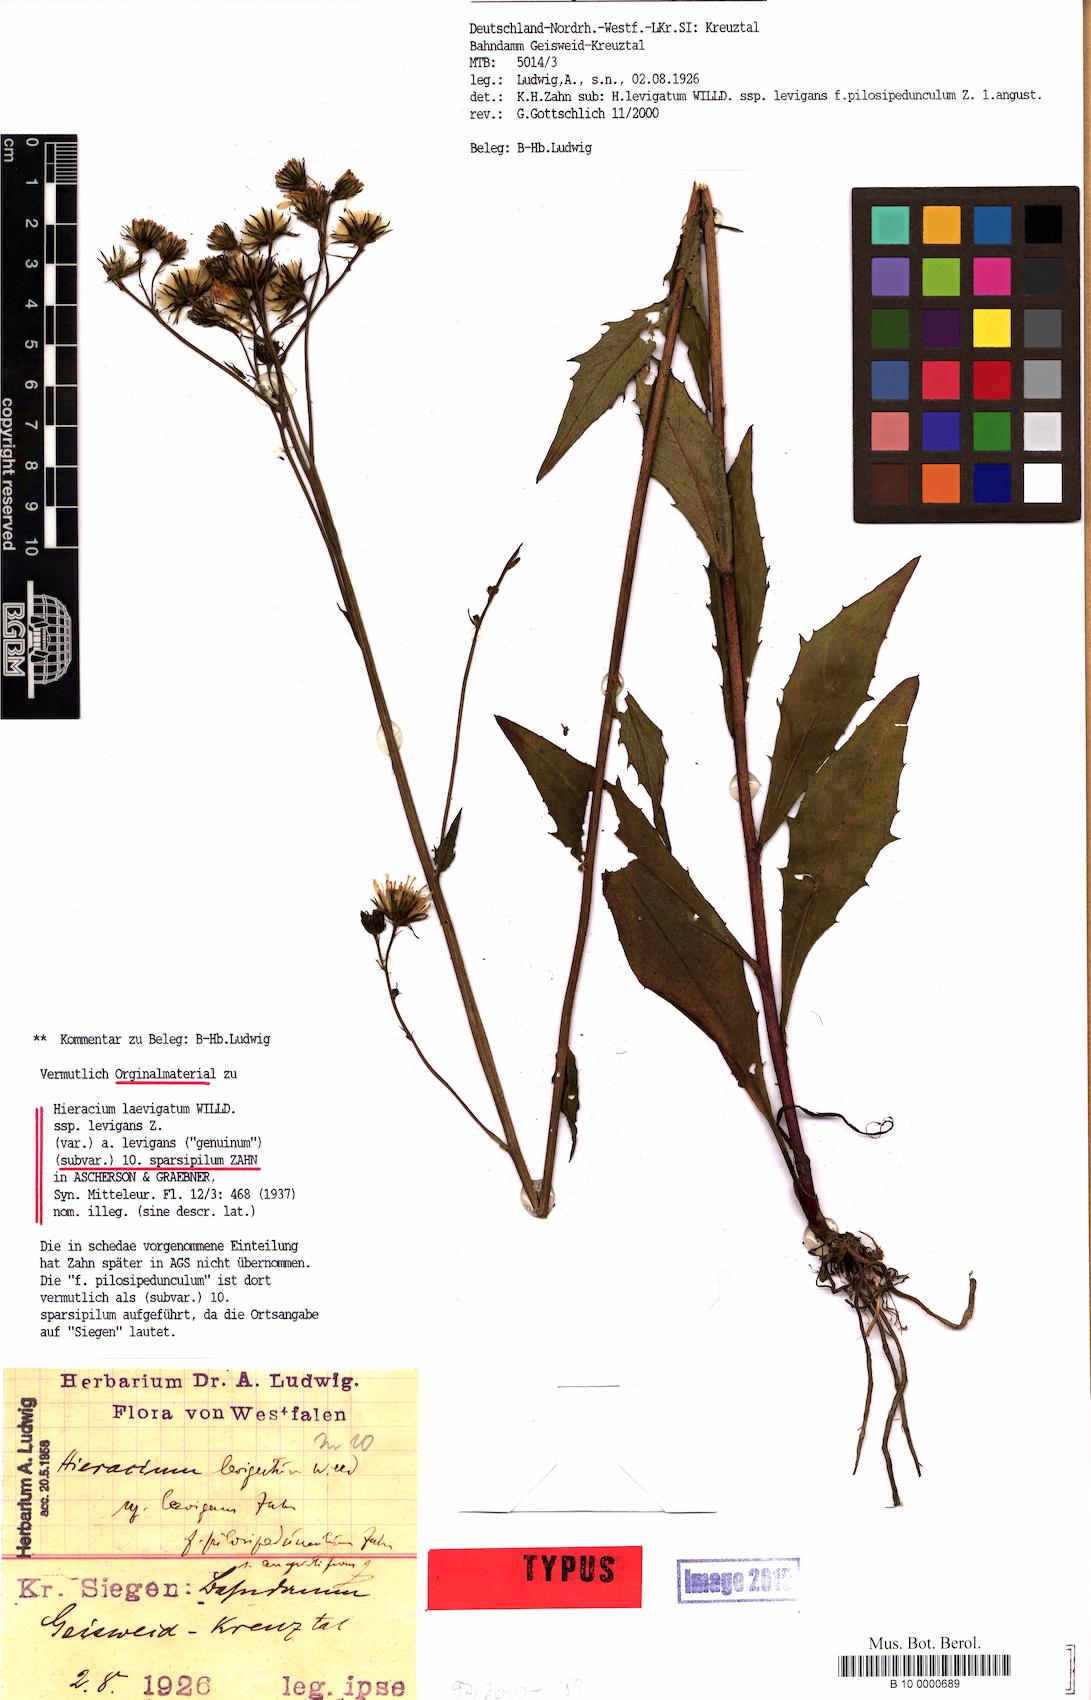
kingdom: Plantae
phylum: Tracheophyta
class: Magnoliopsida
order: Asterales
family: Asteraceae
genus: Hieracium
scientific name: Hieracium
